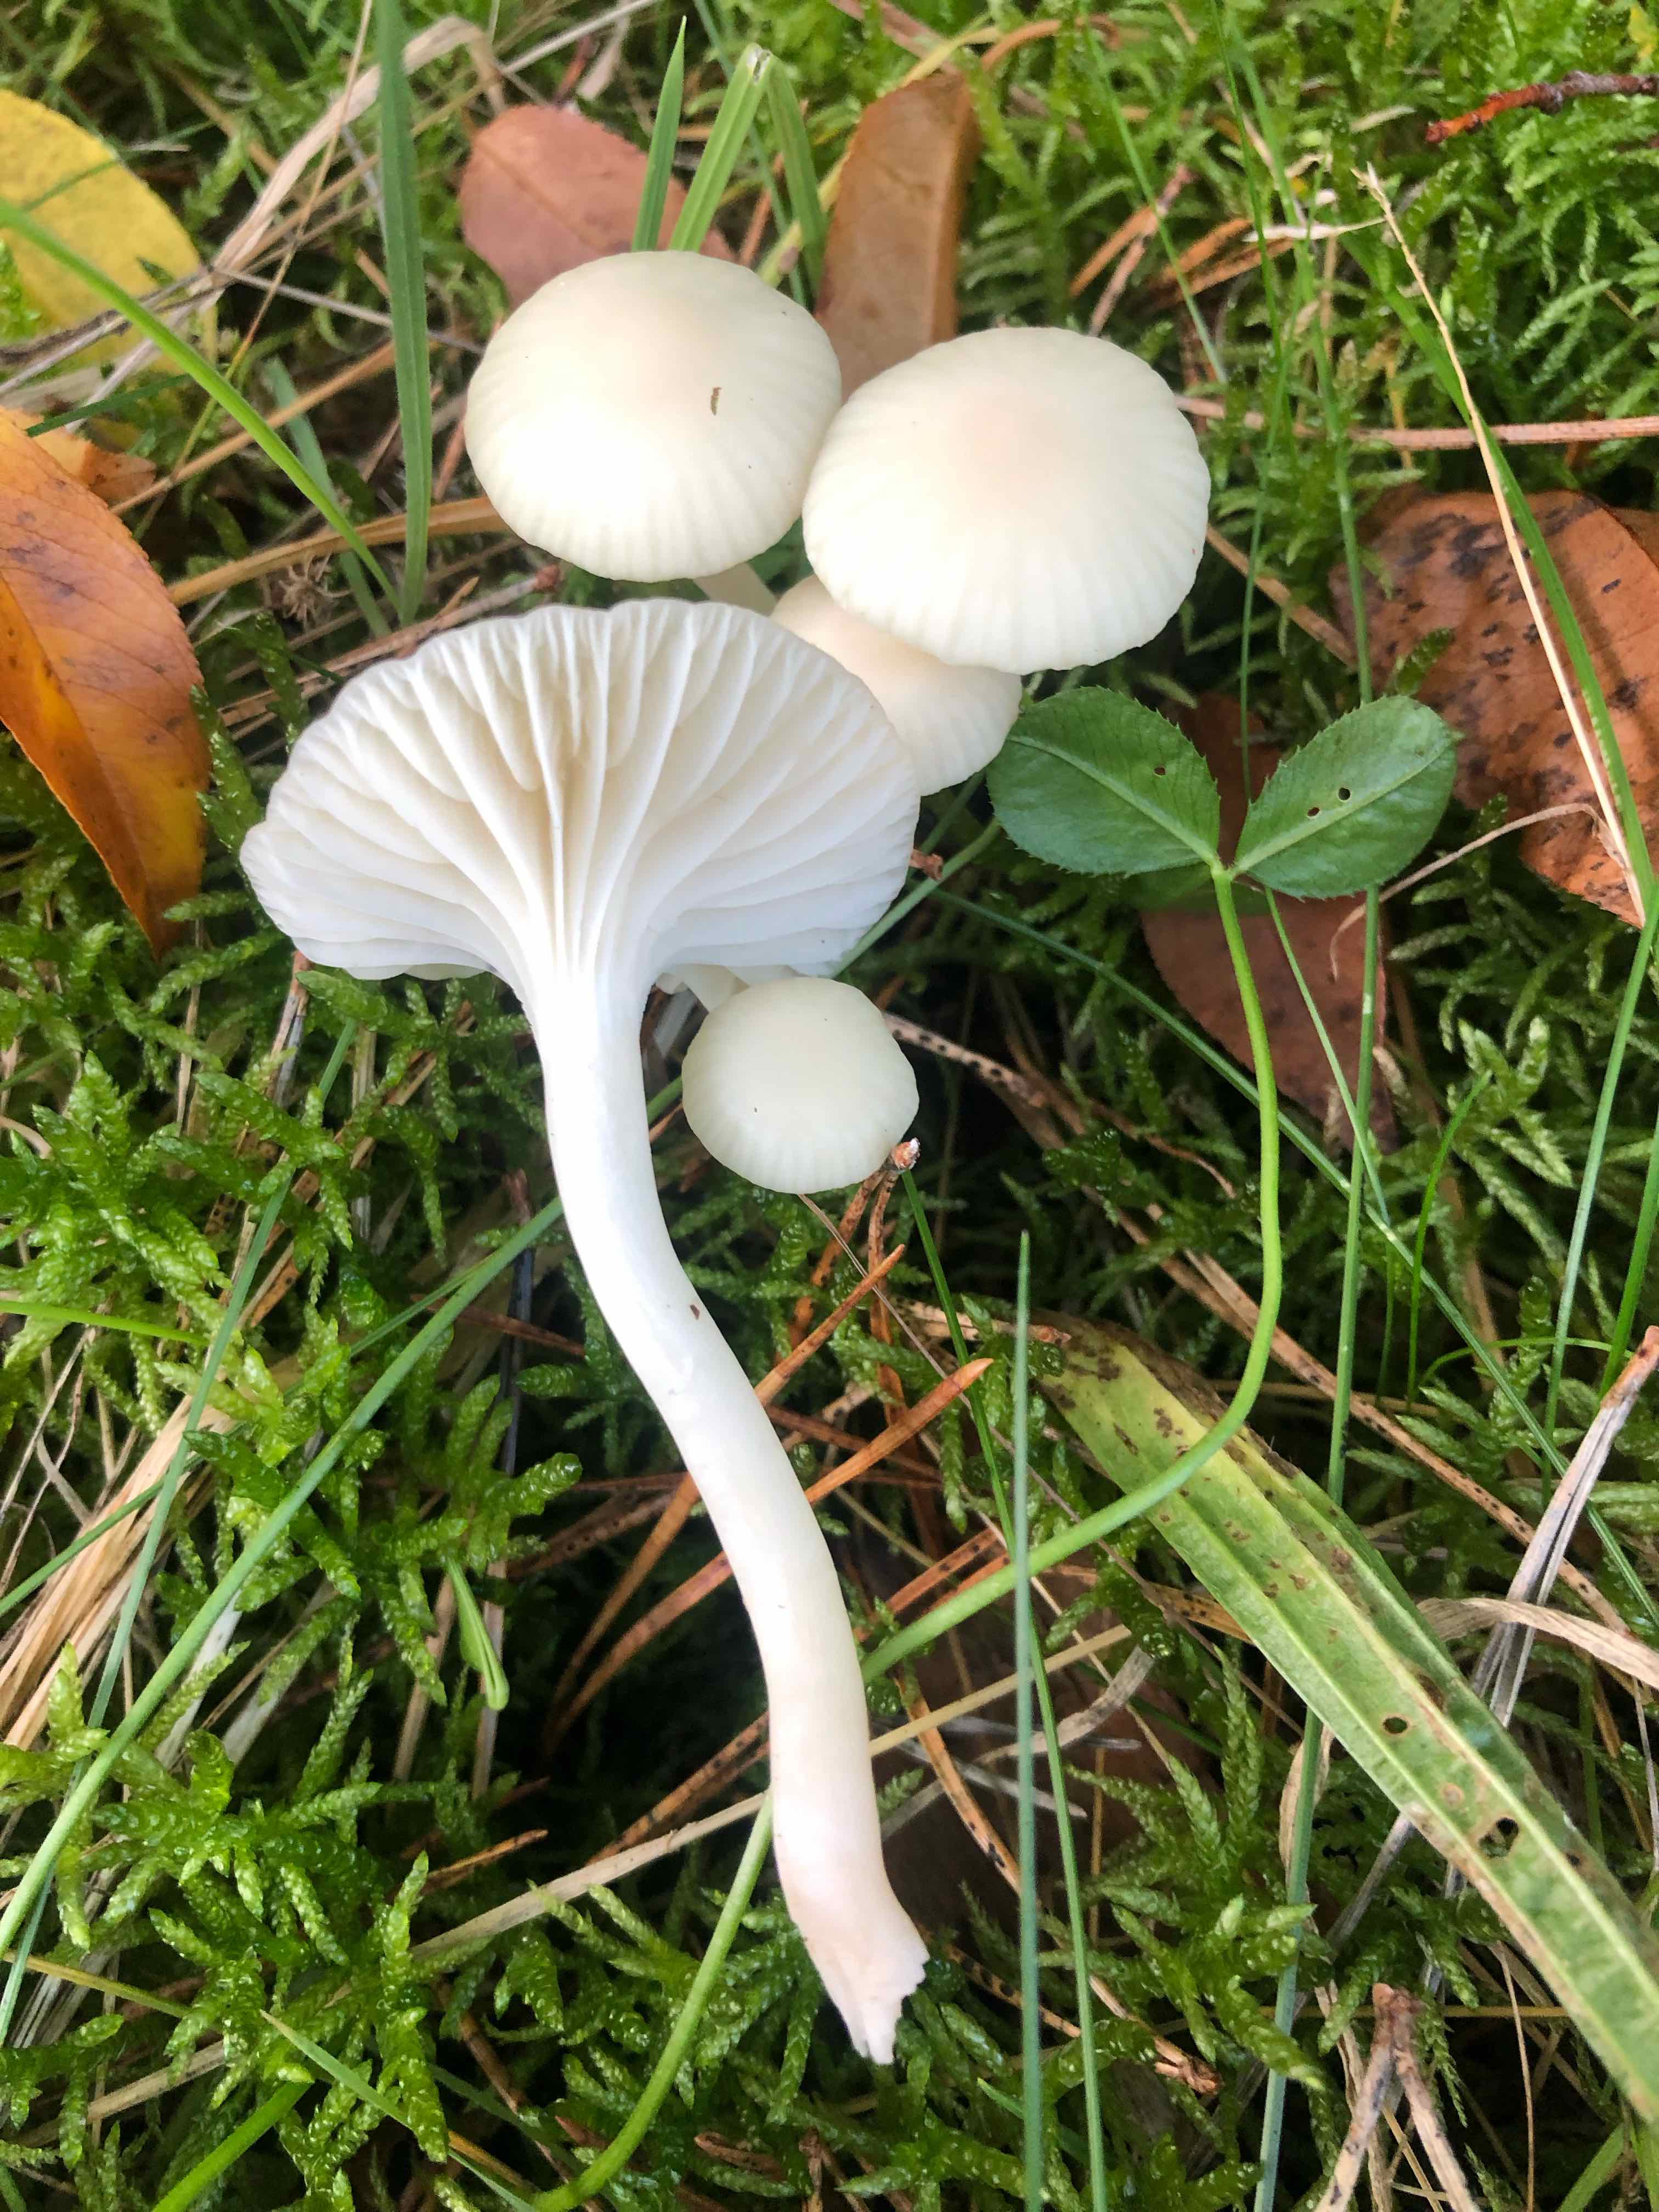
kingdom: Fungi
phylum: Basidiomycota
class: Agaricomycetes
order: Agaricales
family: Hygrophoraceae
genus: Cuphophyllus
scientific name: Cuphophyllus virgineus
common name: snehvid vokshat
